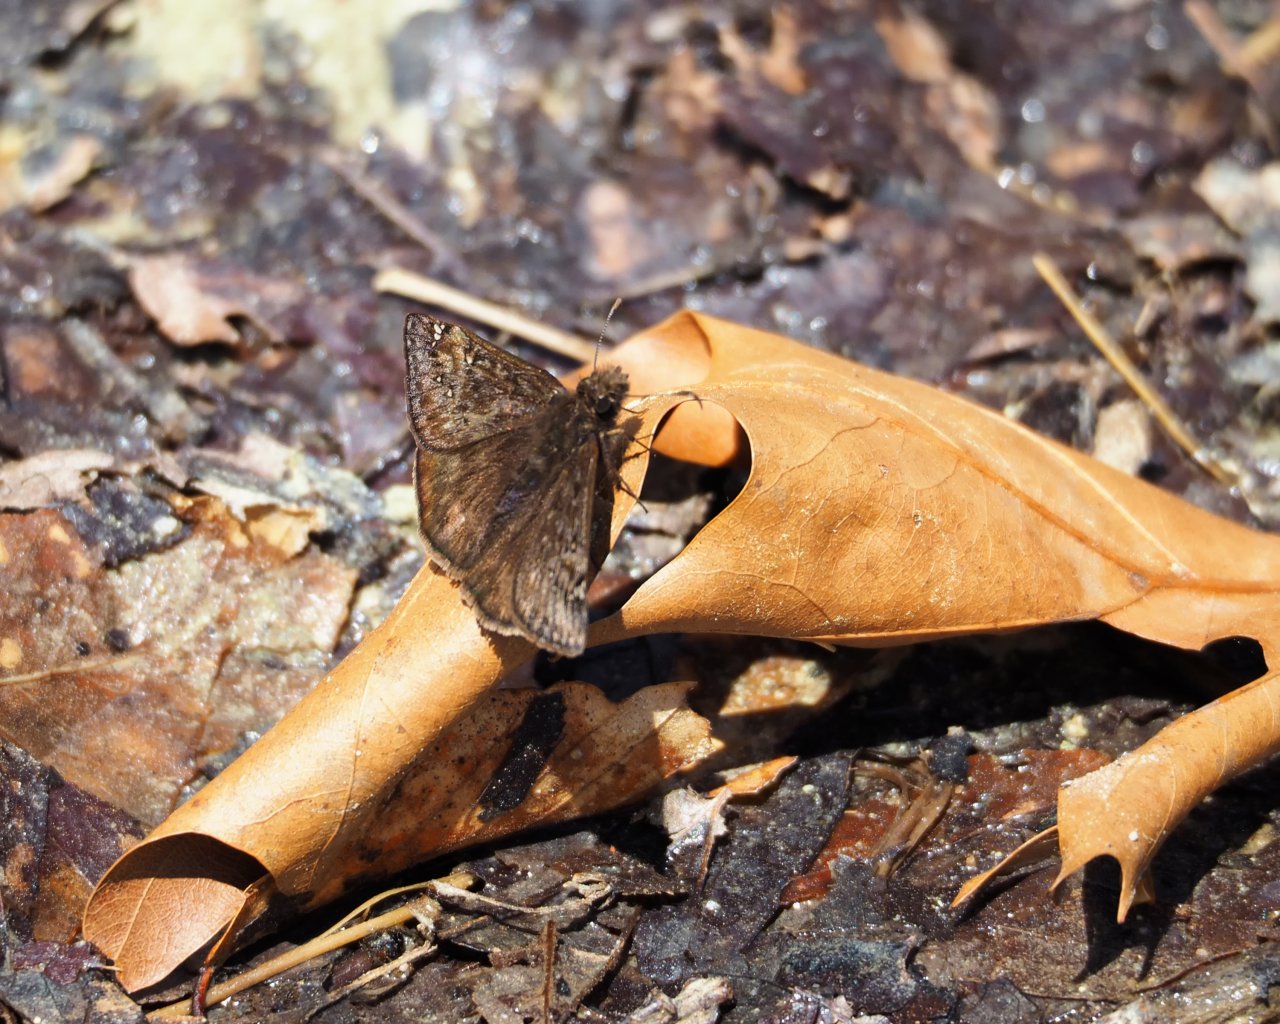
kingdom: Animalia
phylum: Arthropoda
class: Insecta
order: Lepidoptera
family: Hesperiidae
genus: Gesta
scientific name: Gesta
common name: Juvenal's Duskywing
